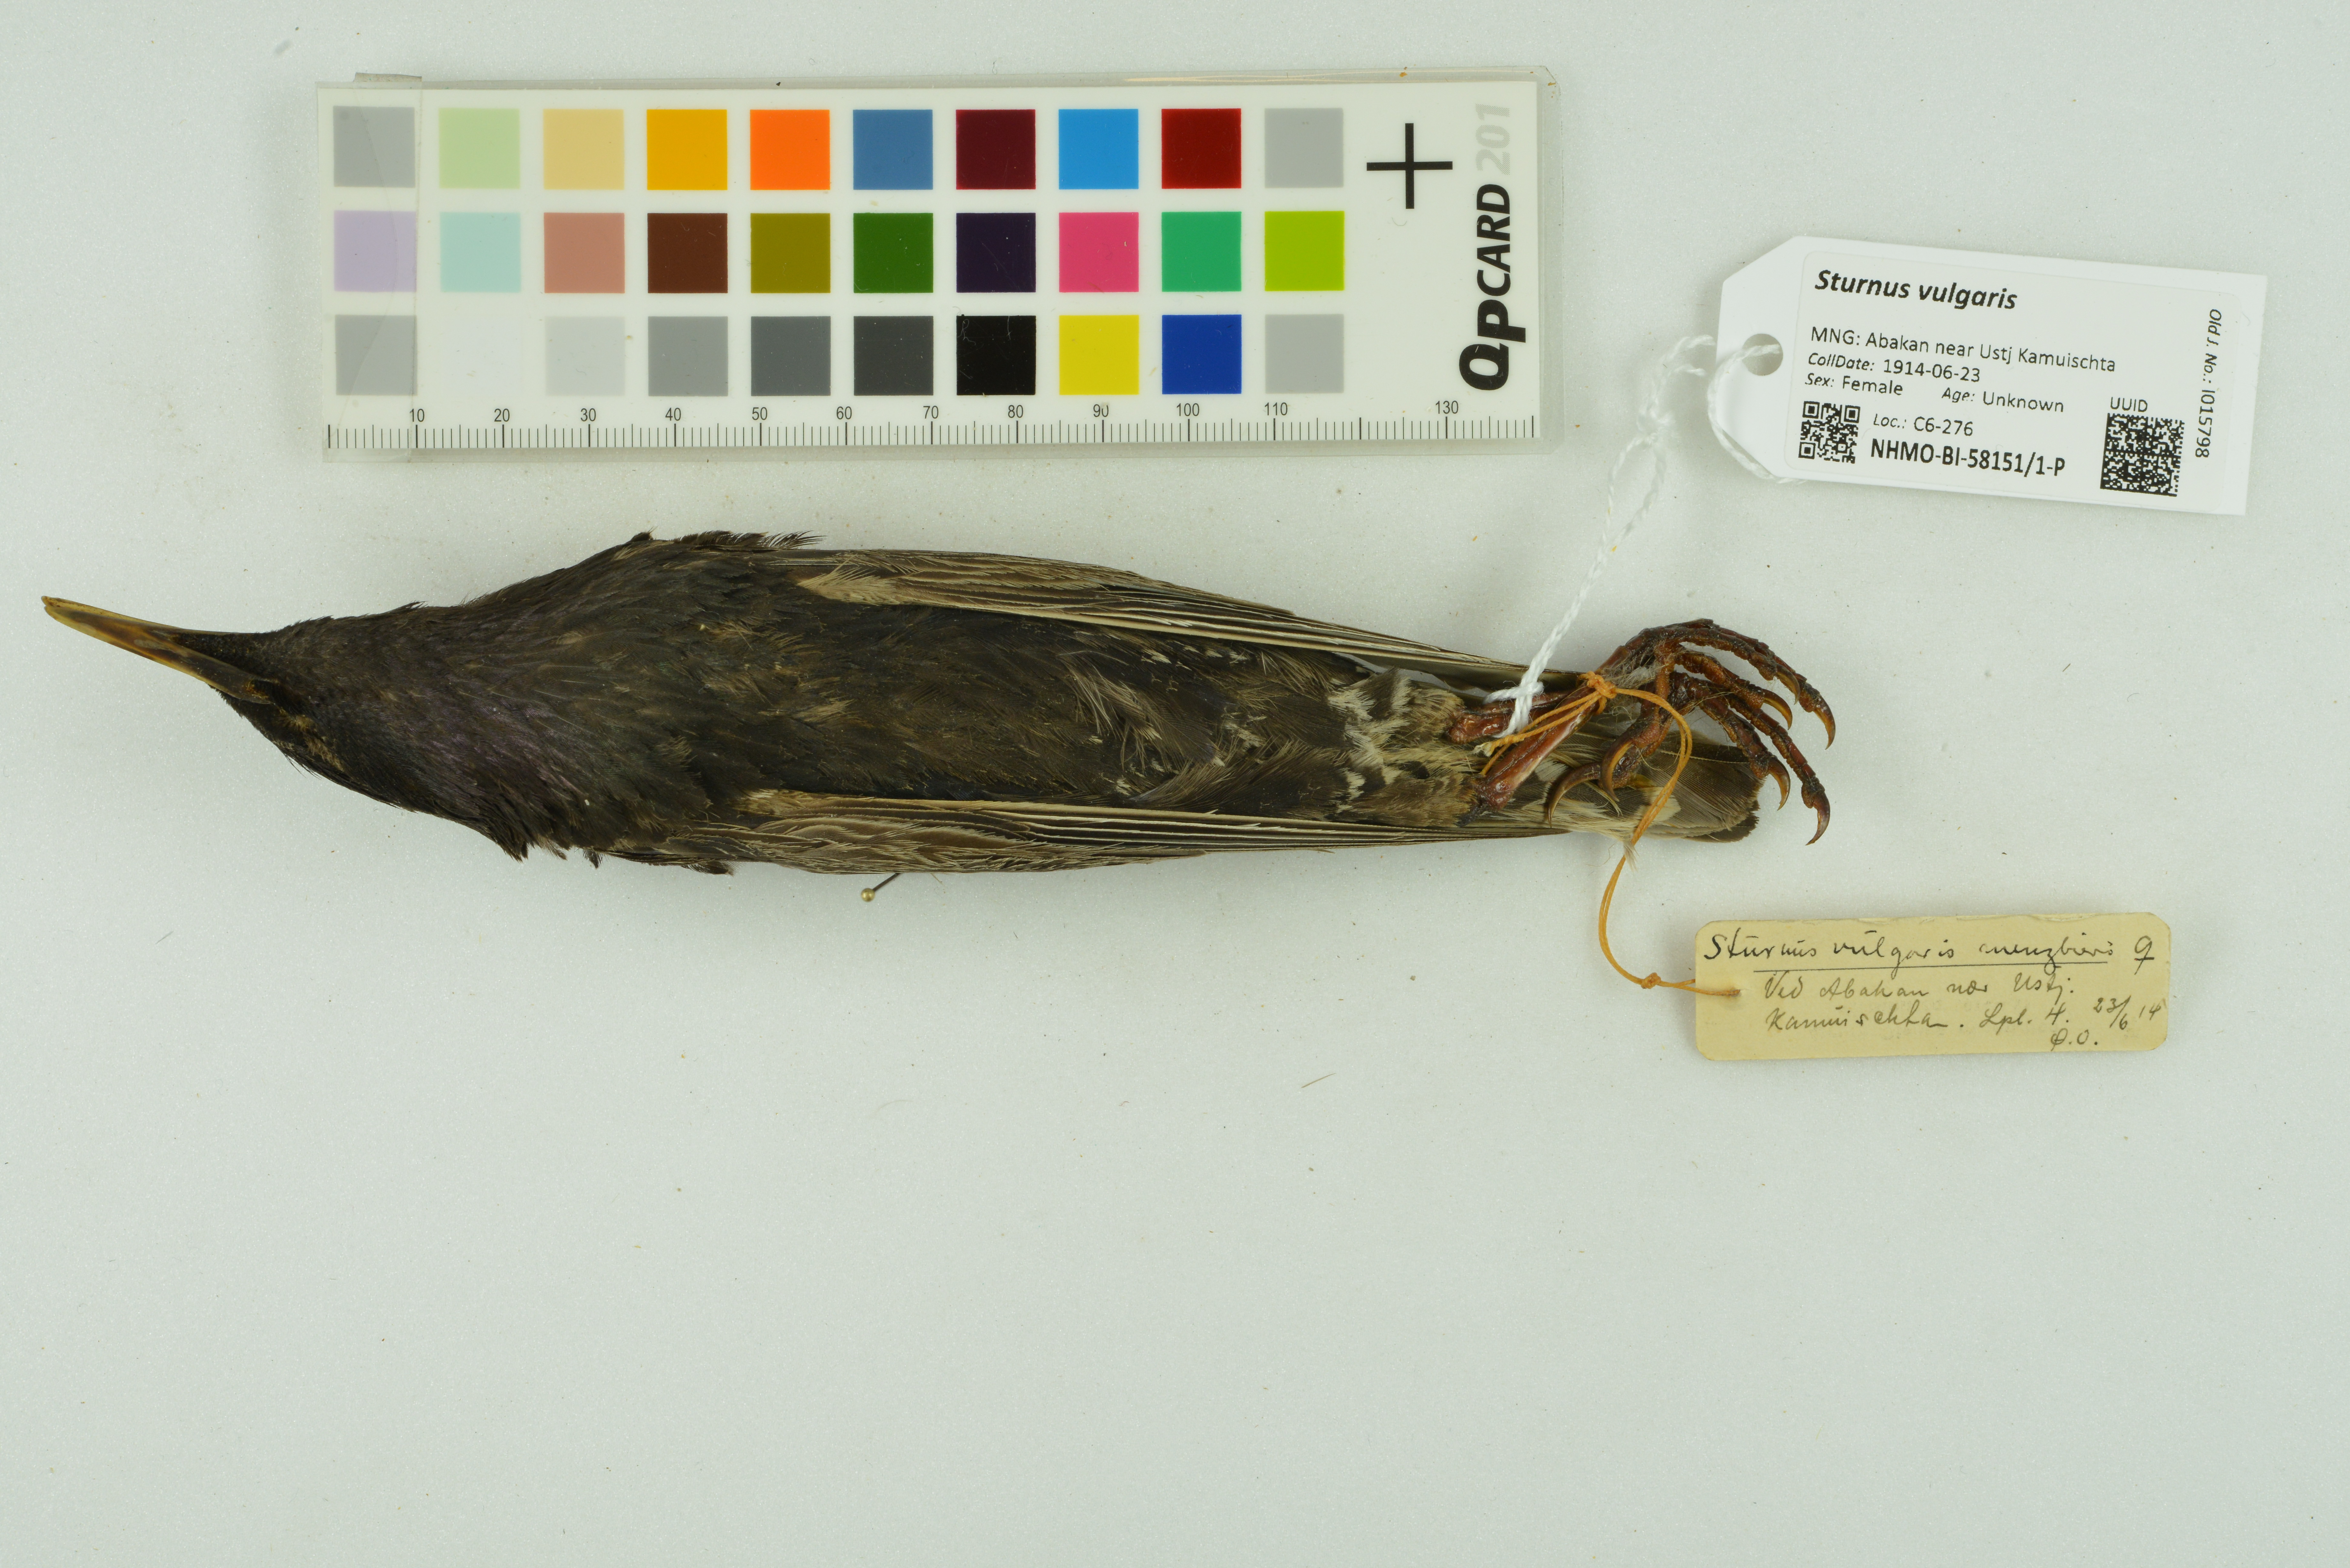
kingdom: Animalia
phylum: Chordata
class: Aves
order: Passeriformes
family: Sturnidae
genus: Sturnus
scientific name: Sturnus vulgaris
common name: Common starling
